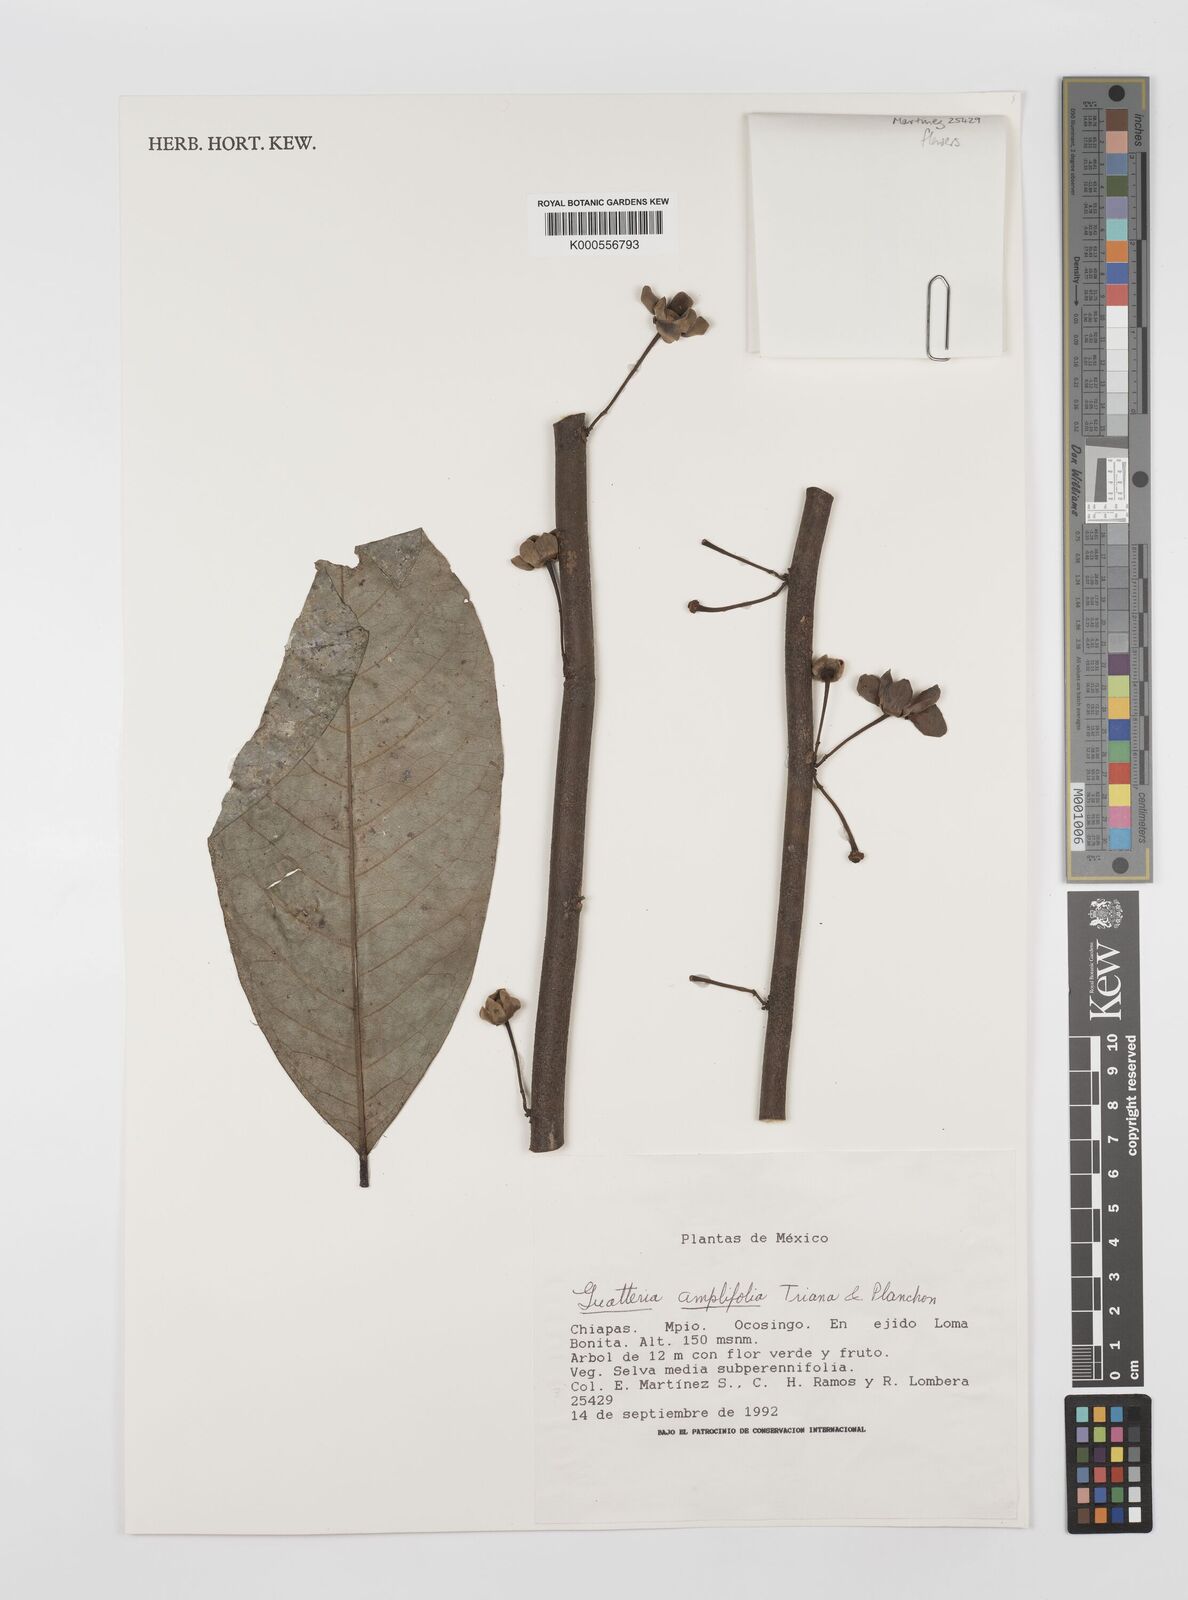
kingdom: Plantae
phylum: Tracheophyta
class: Magnoliopsida
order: Magnoliales
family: Annonaceae
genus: Guatteria
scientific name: Guatteria amplifolia
